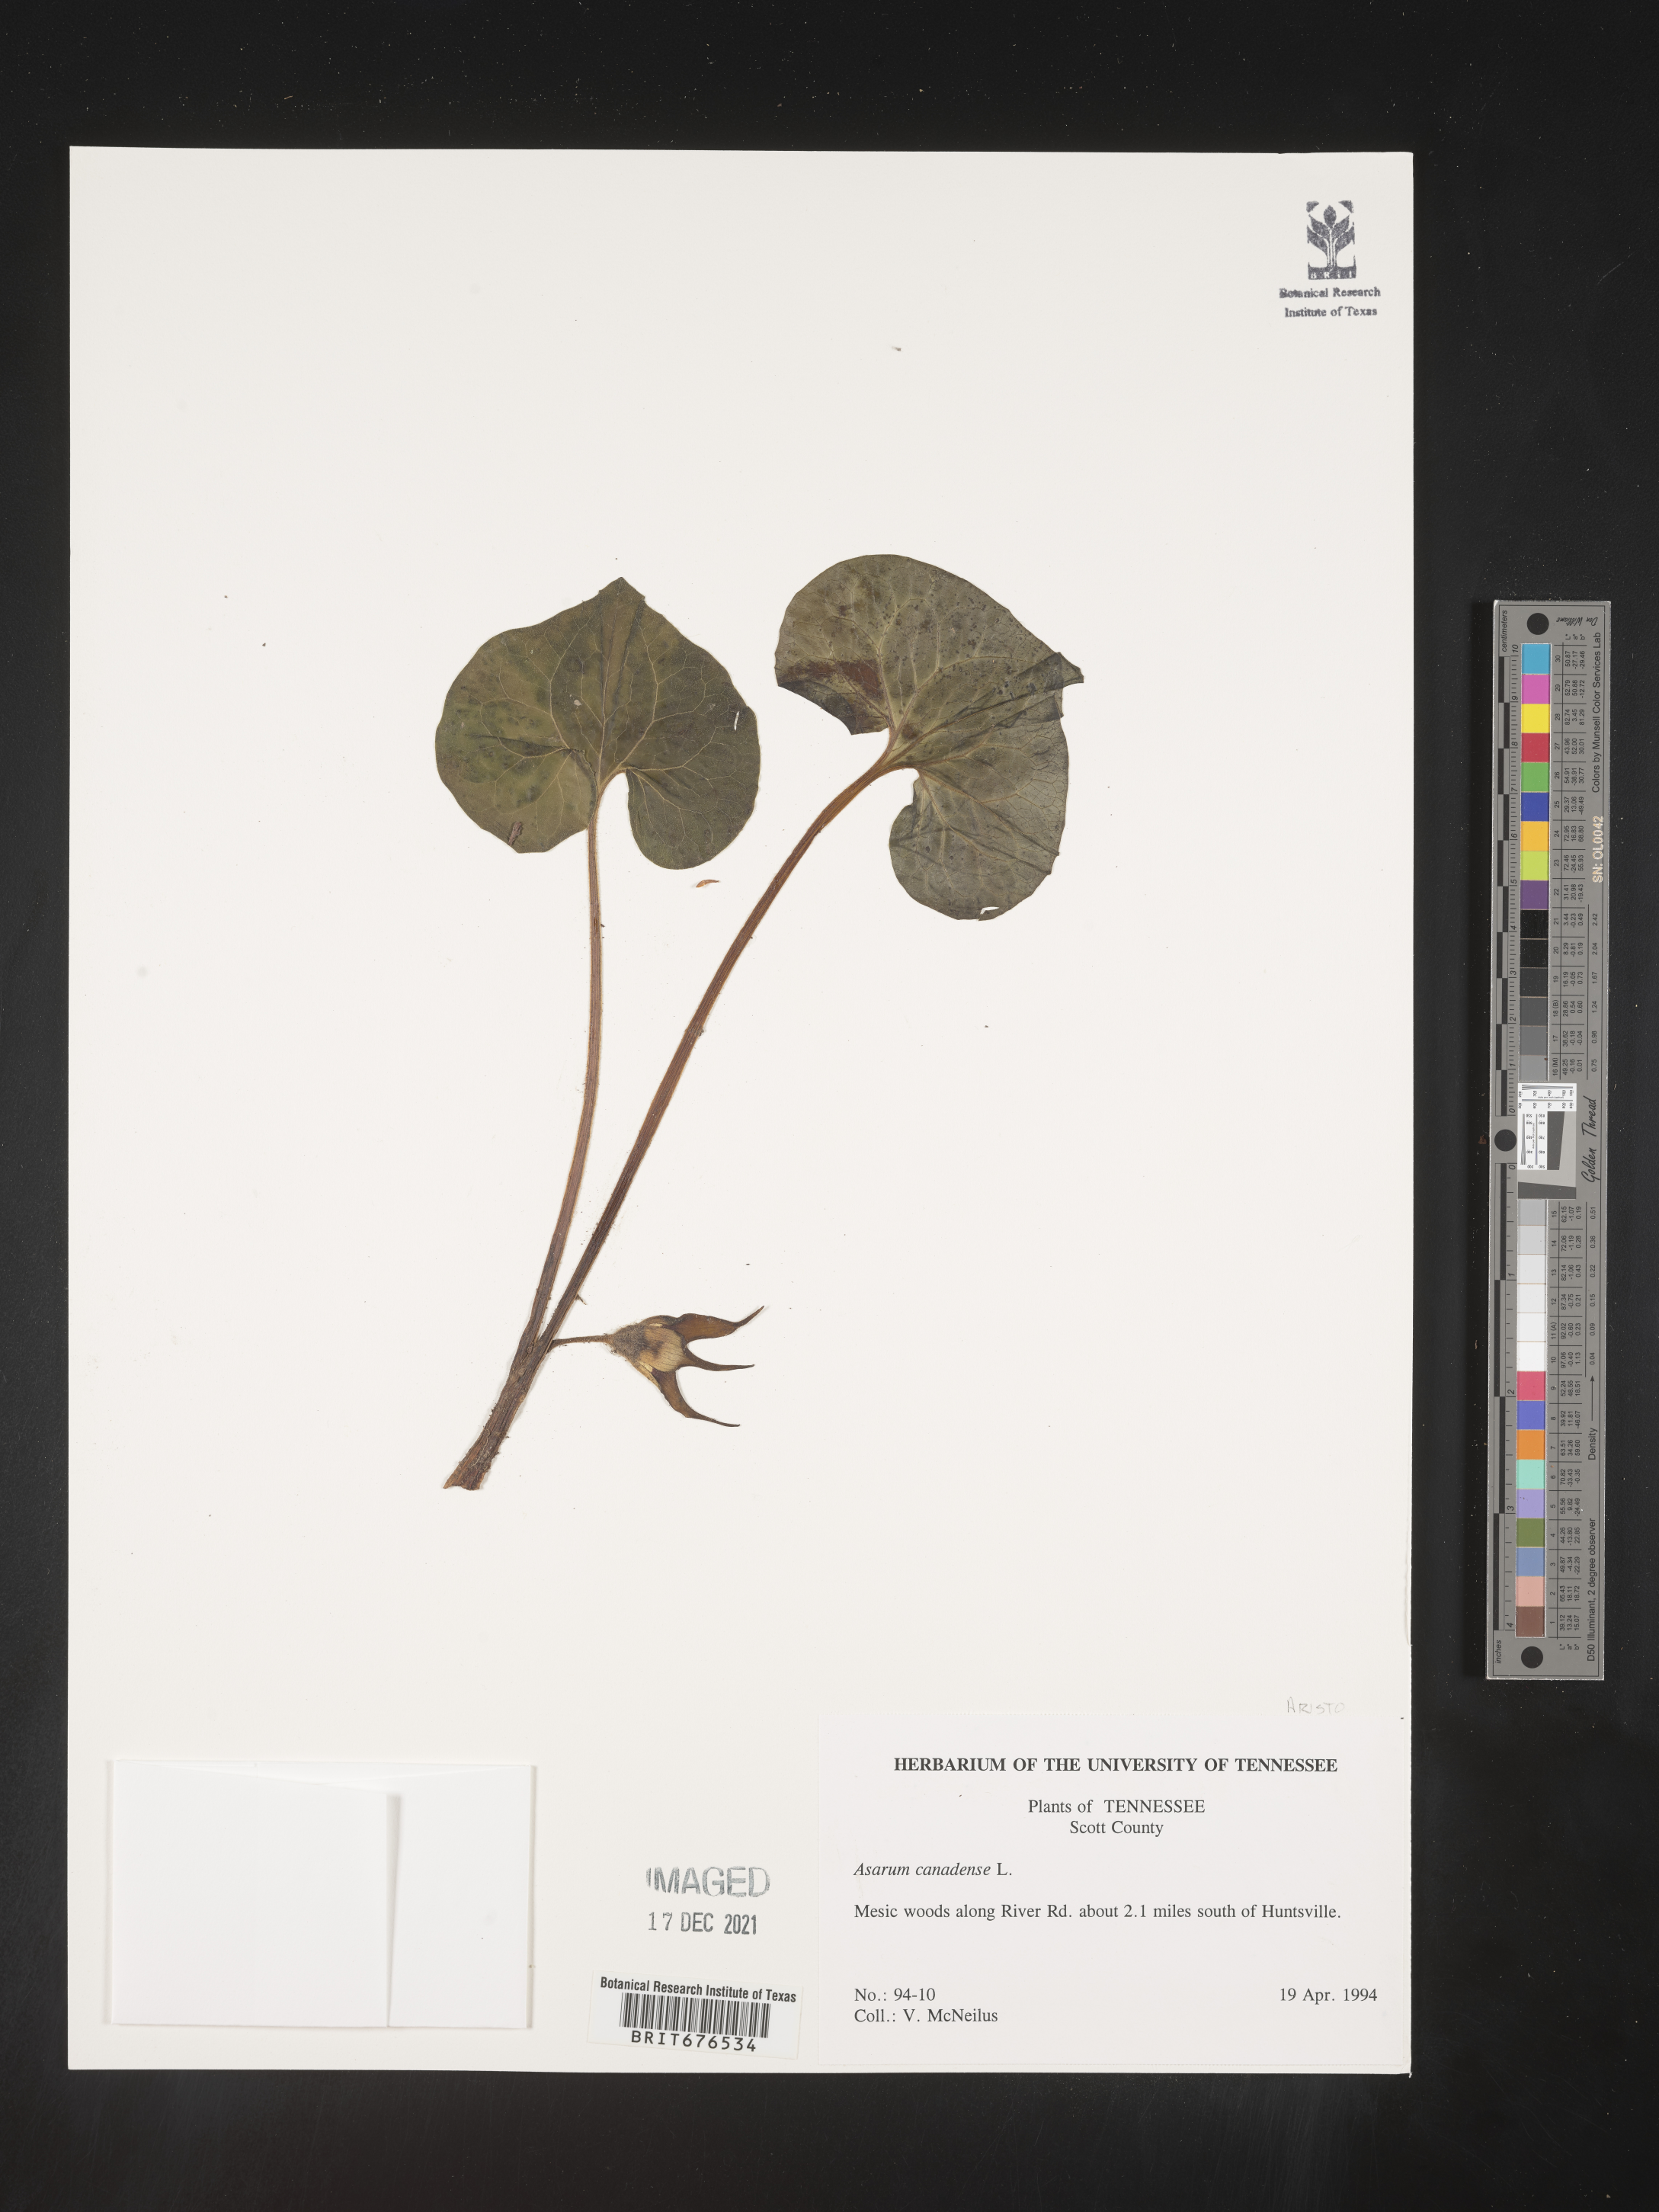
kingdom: Plantae
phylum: Tracheophyta
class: Magnoliopsida
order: Piperales
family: Aristolochiaceae
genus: Asarum
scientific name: Asarum canadense
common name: Wild ginger
